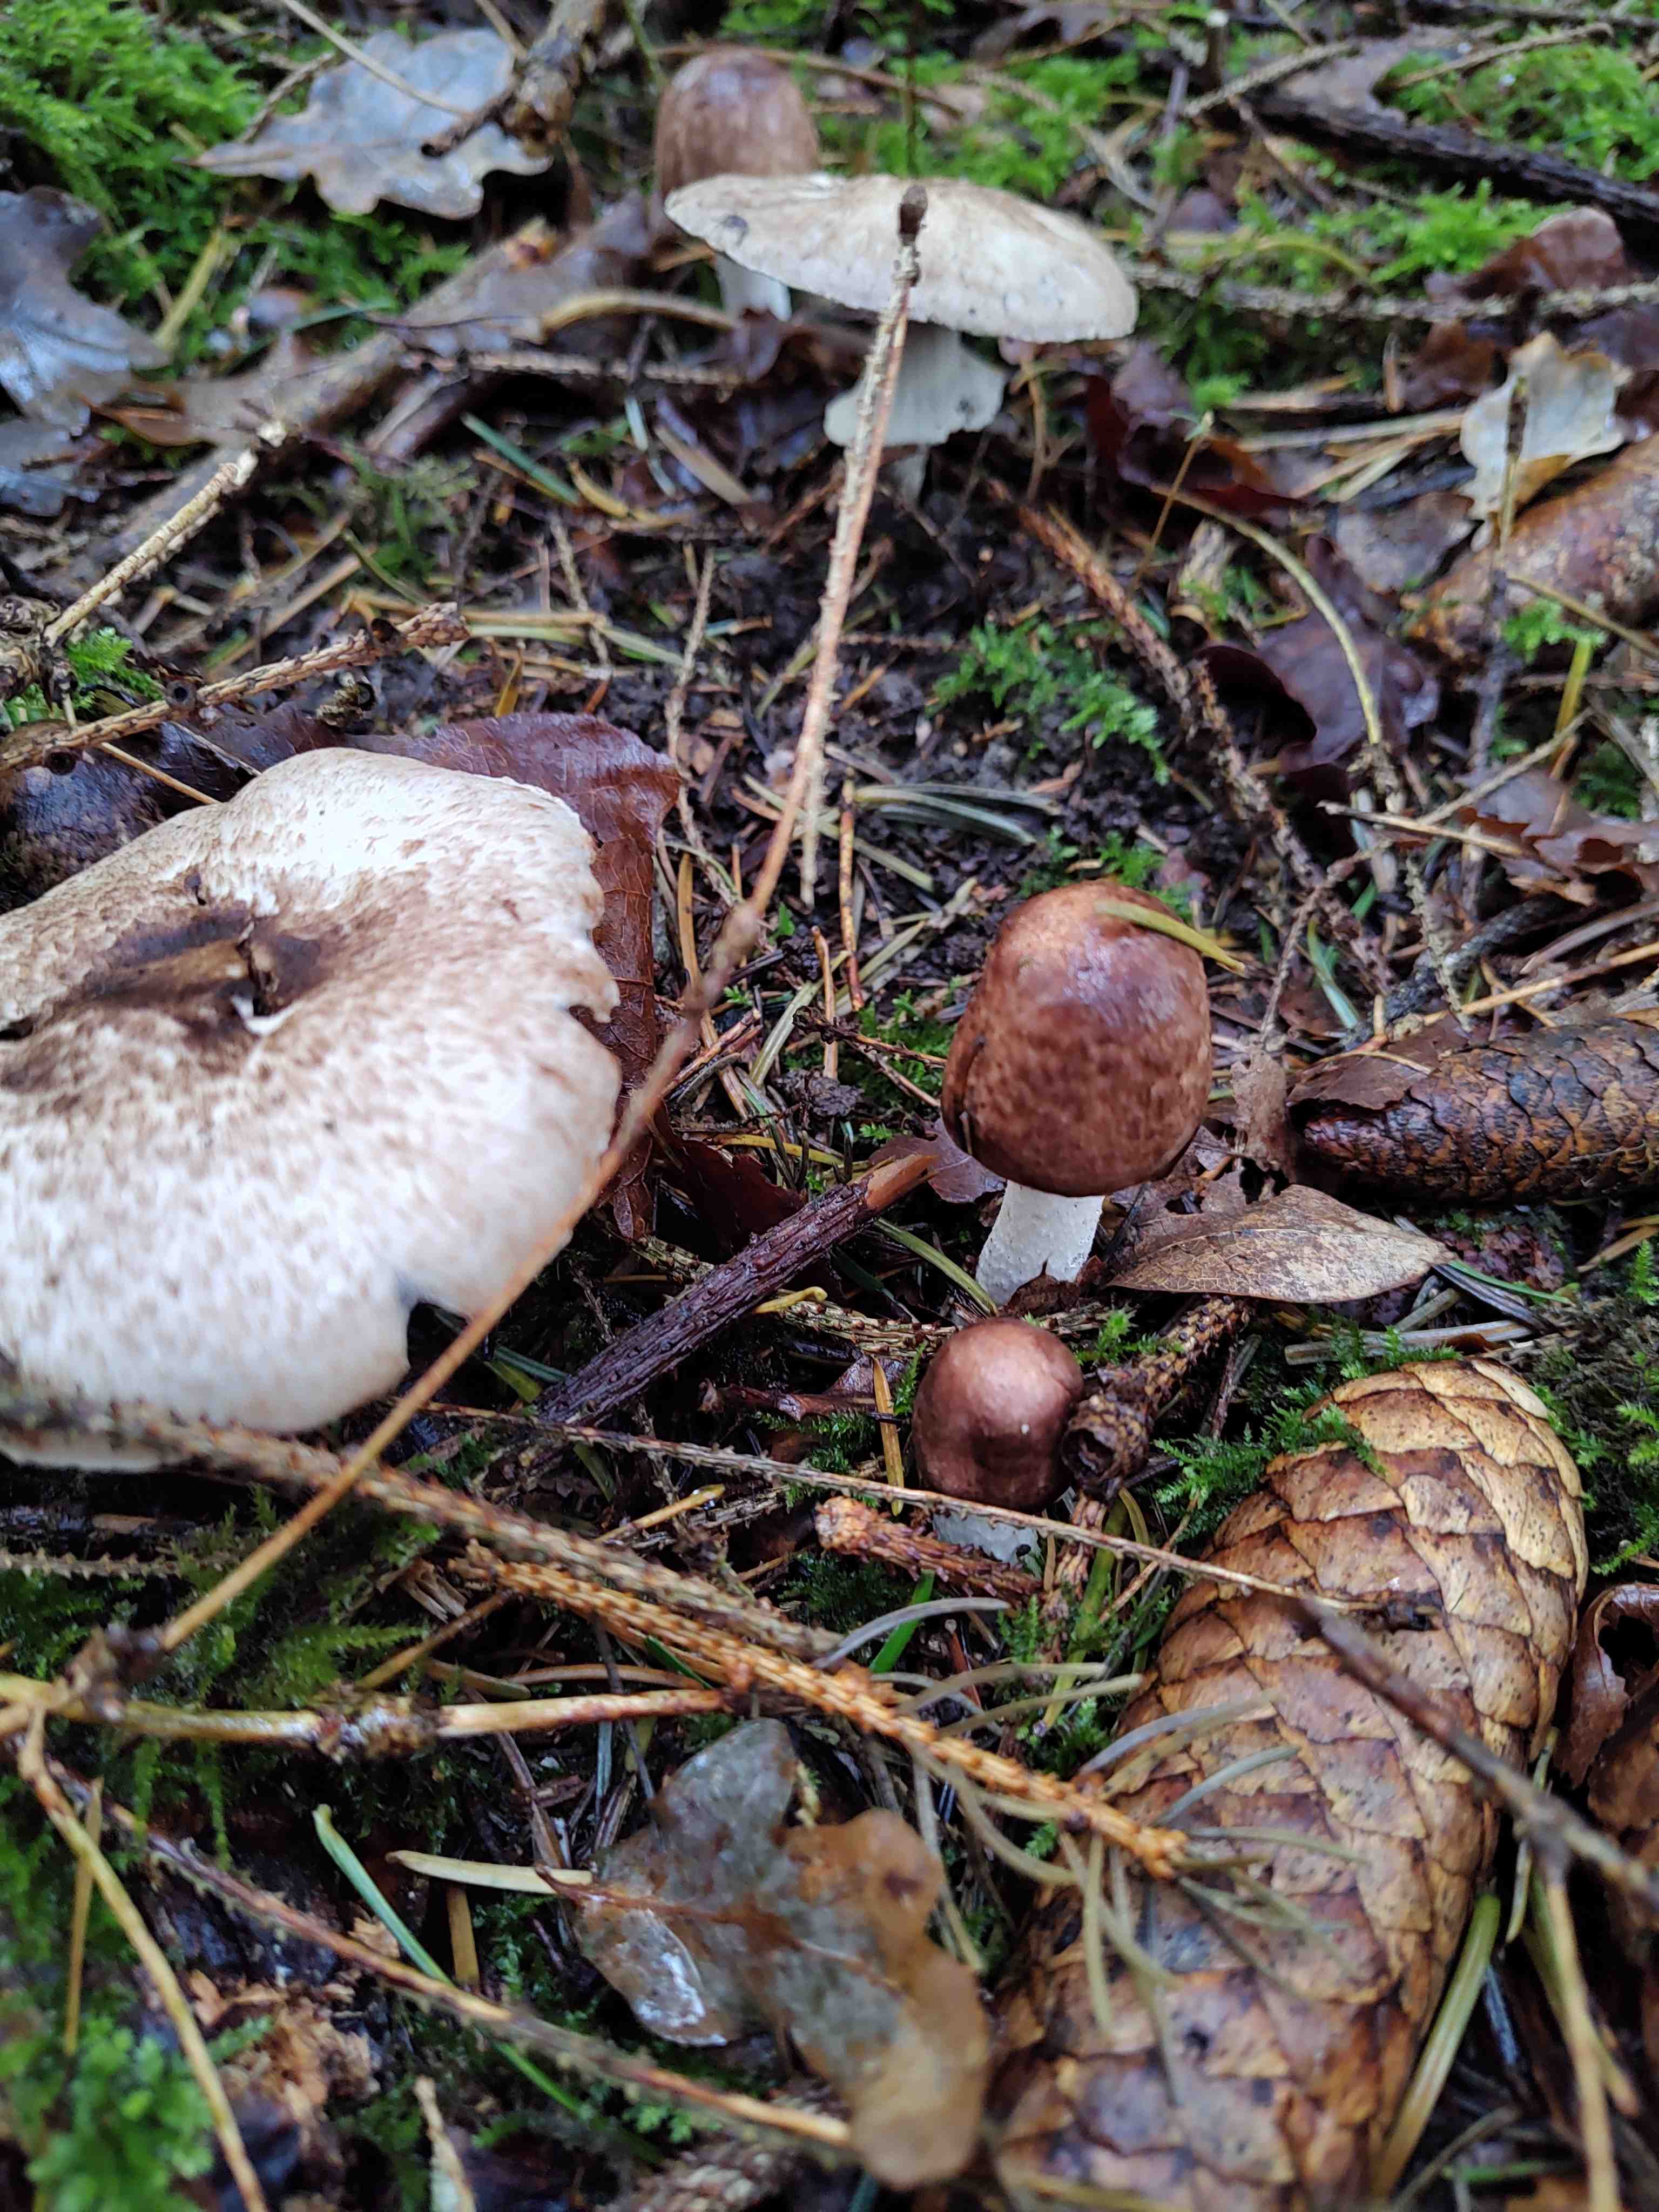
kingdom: Fungi
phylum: Basidiomycota
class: Agaricomycetes
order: Agaricales
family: Agaricaceae
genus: Agaricus
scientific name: Agaricus impudicus
